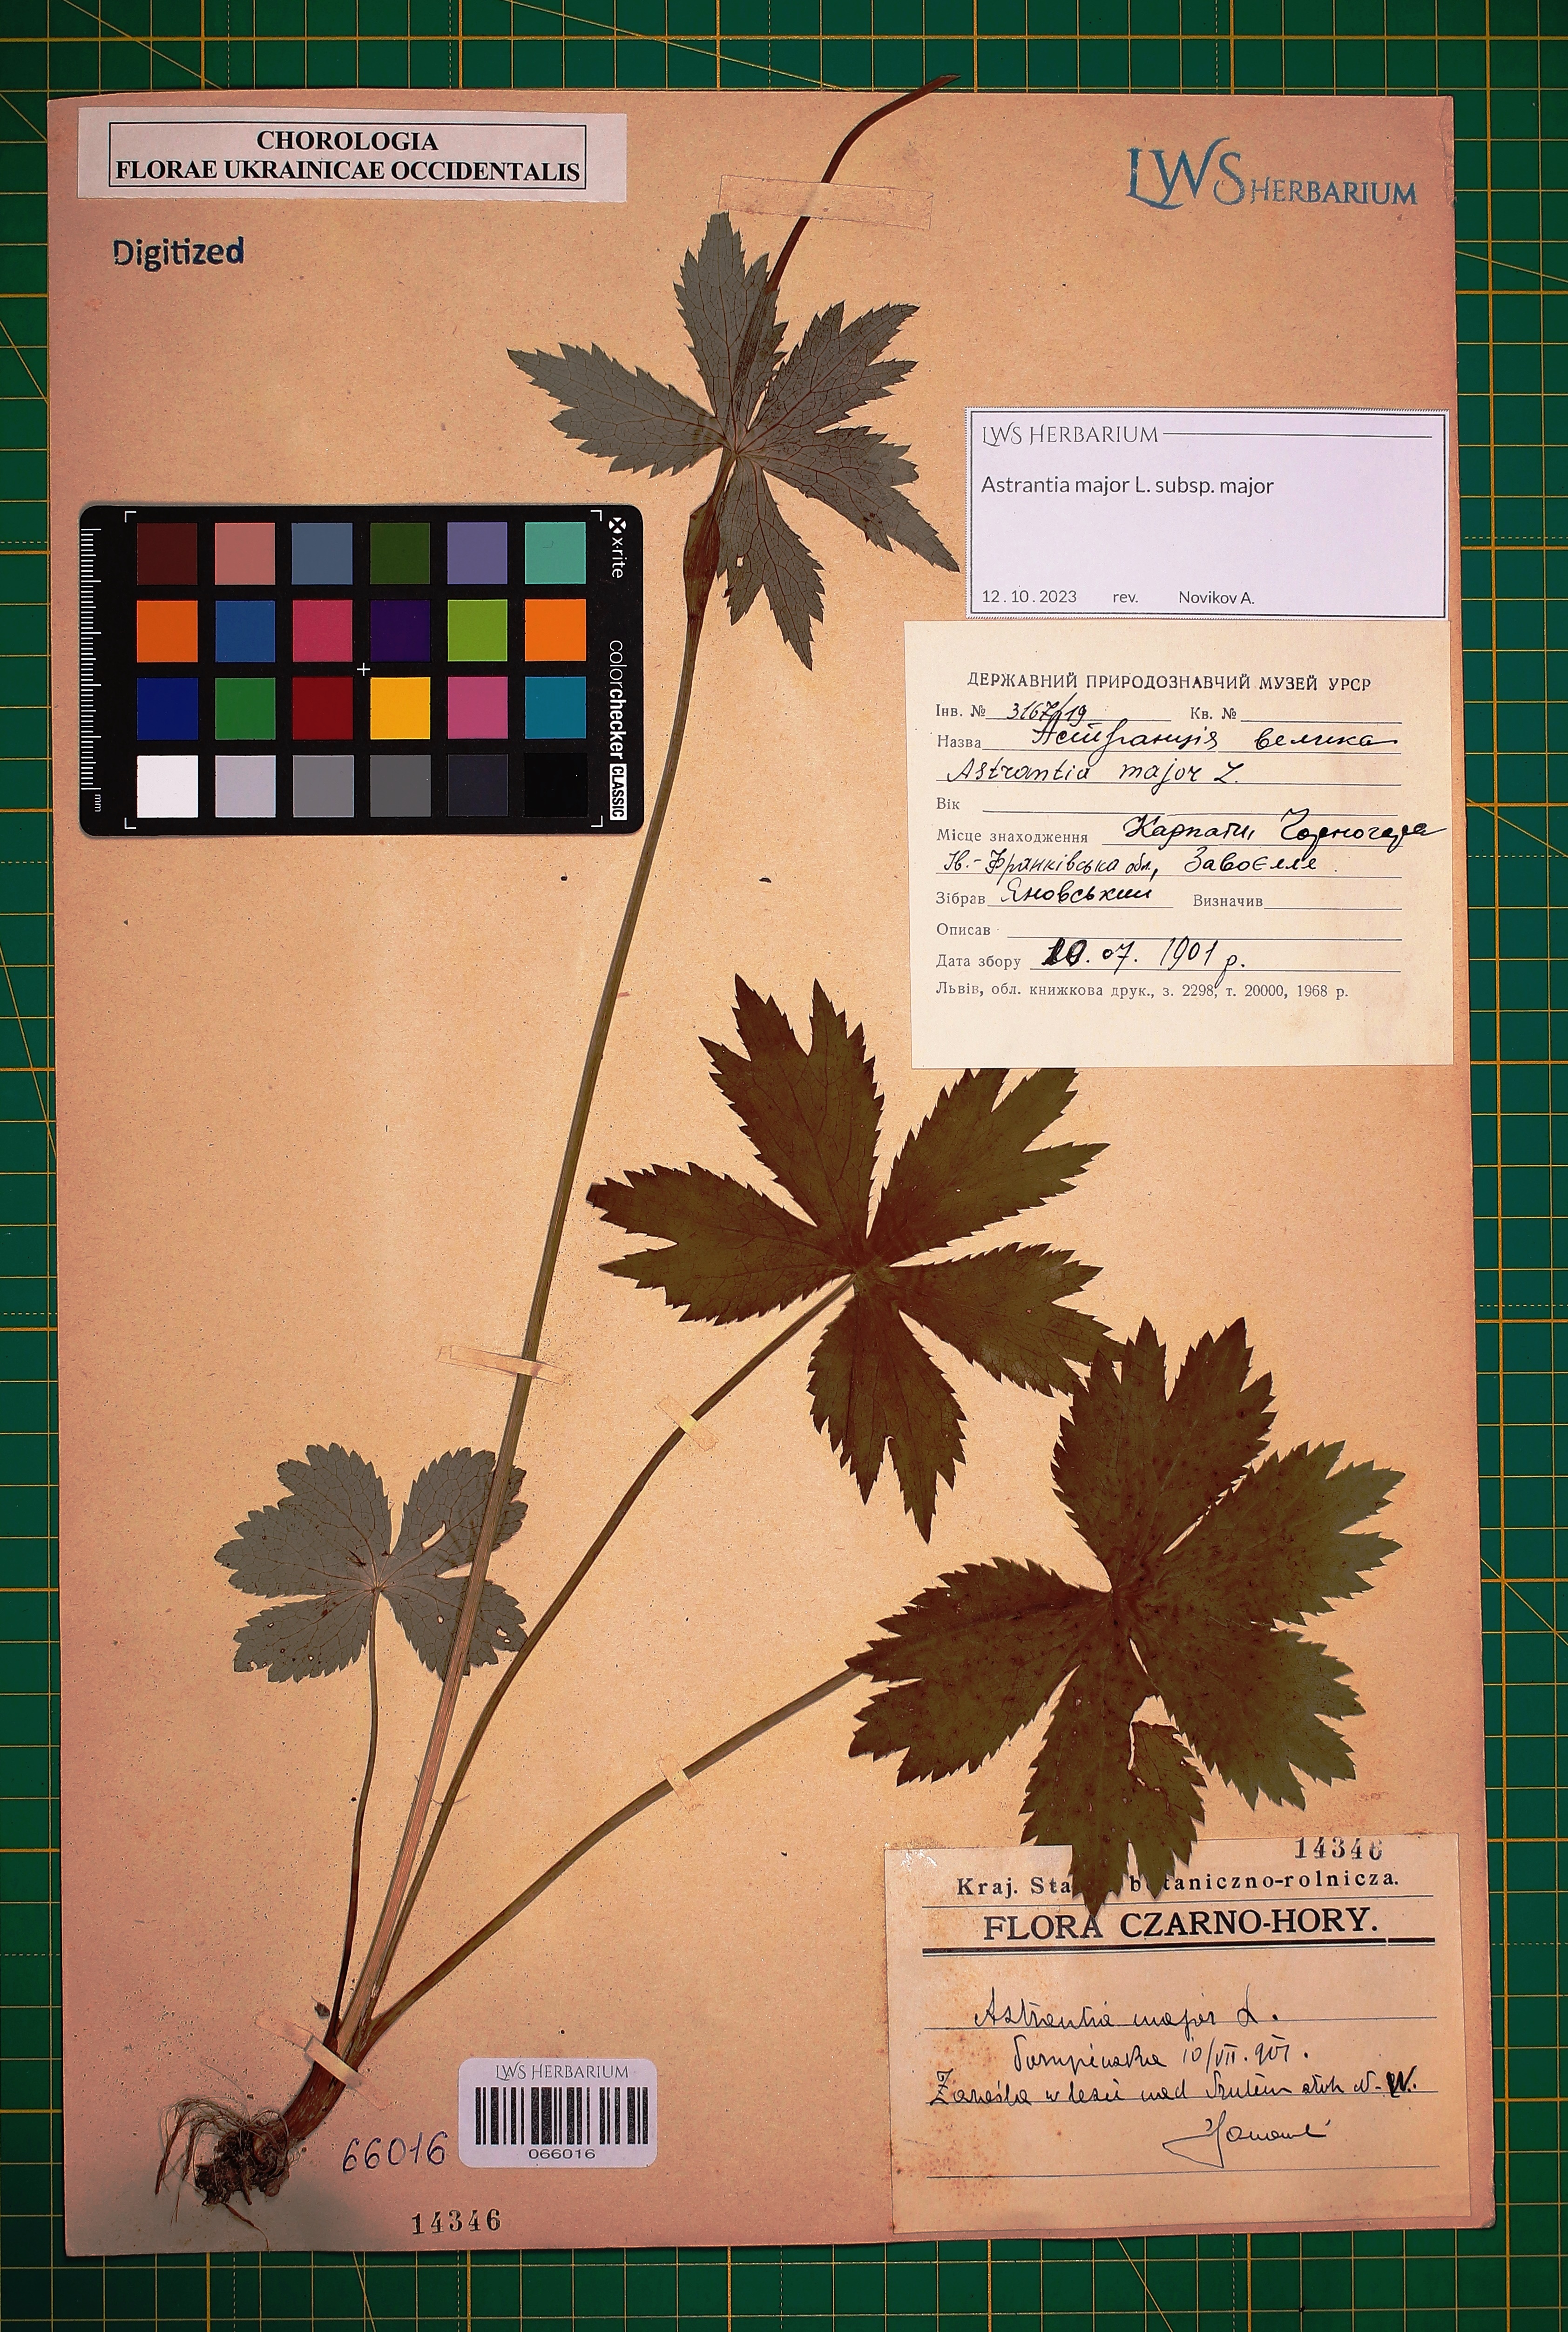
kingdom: Plantae
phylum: Tracheophyta
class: Magnoliopsida
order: Apiales
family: Apiaceae
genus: Astrantia
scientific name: Astrantia major
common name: Greater masterwort
